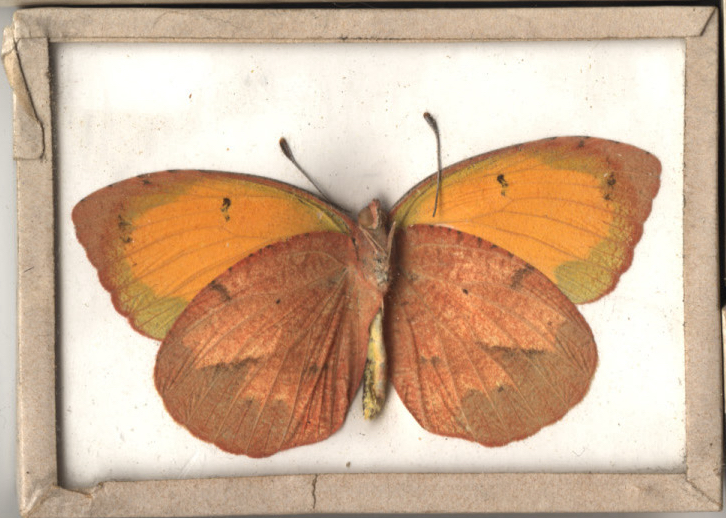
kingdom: Animalia
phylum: Arthropoda
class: Insecta
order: Lepidoptera
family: Pieridae
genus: Abaeis
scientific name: Abaeis nicippe
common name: Sleepy Orange
